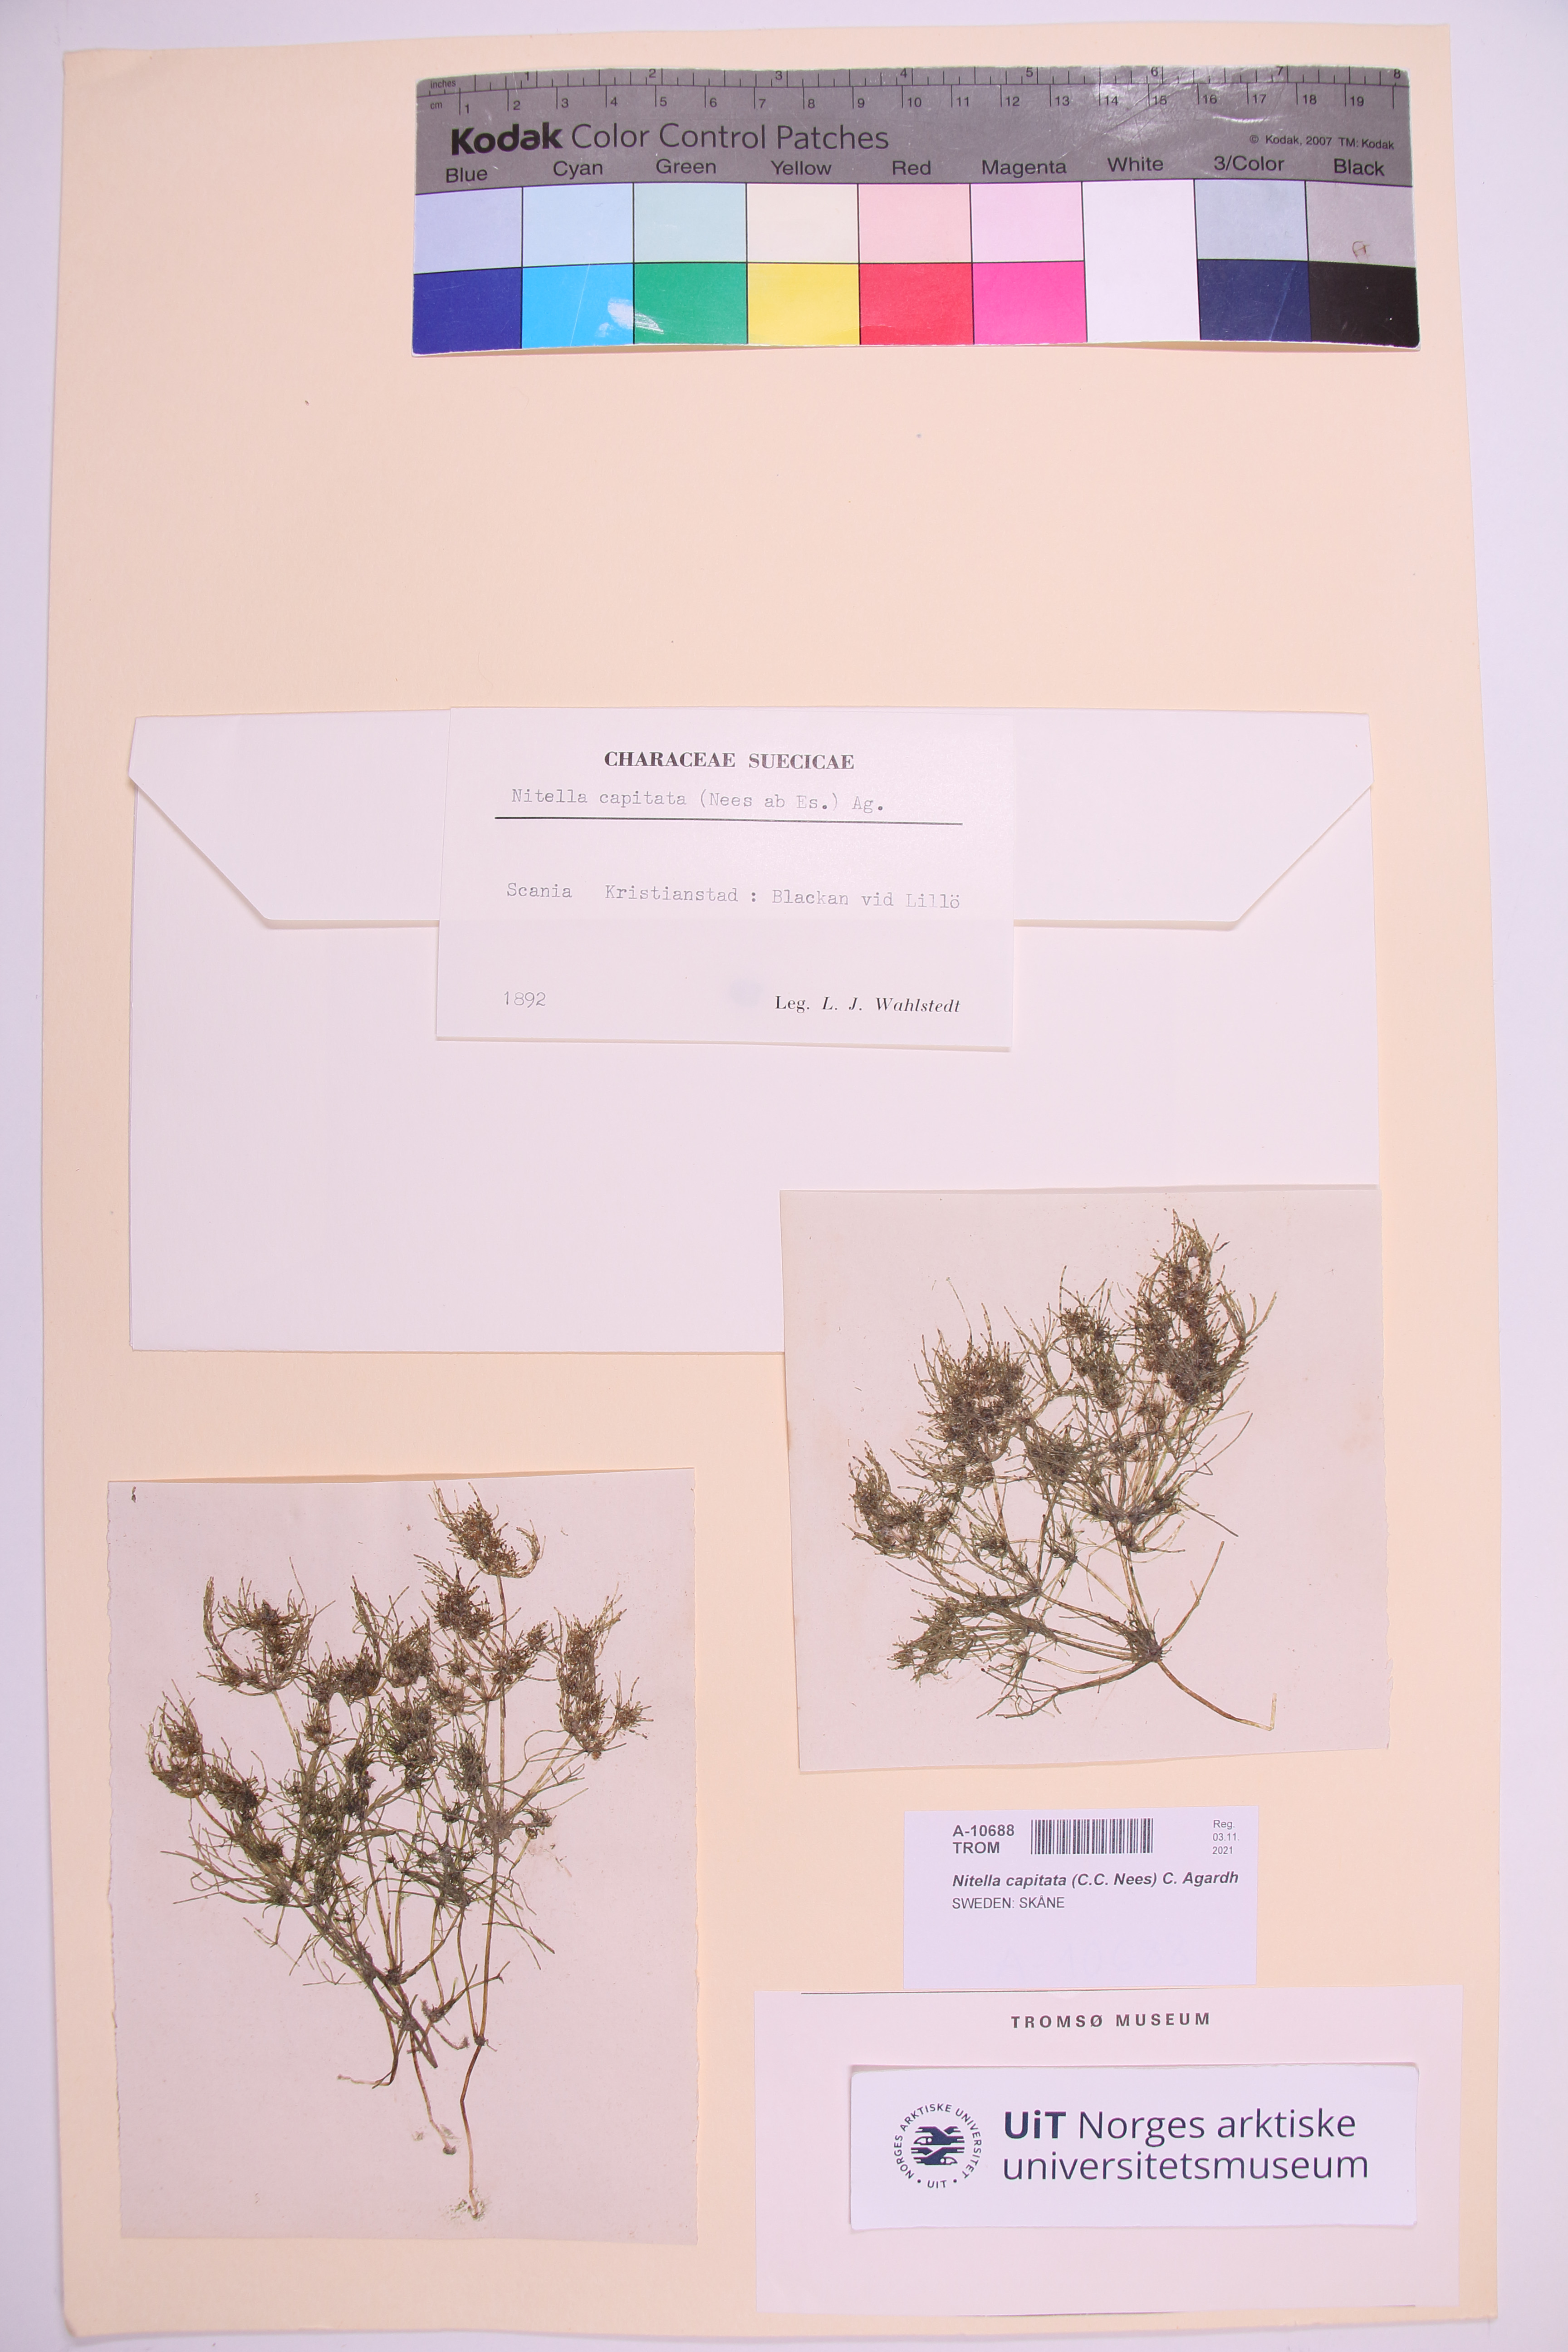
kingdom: Plantae
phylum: Charophyta
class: Charophyceae
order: Charales
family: Characeae
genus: Nitella
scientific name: Nitella capillaris
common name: Slimy-fruited stonewort
